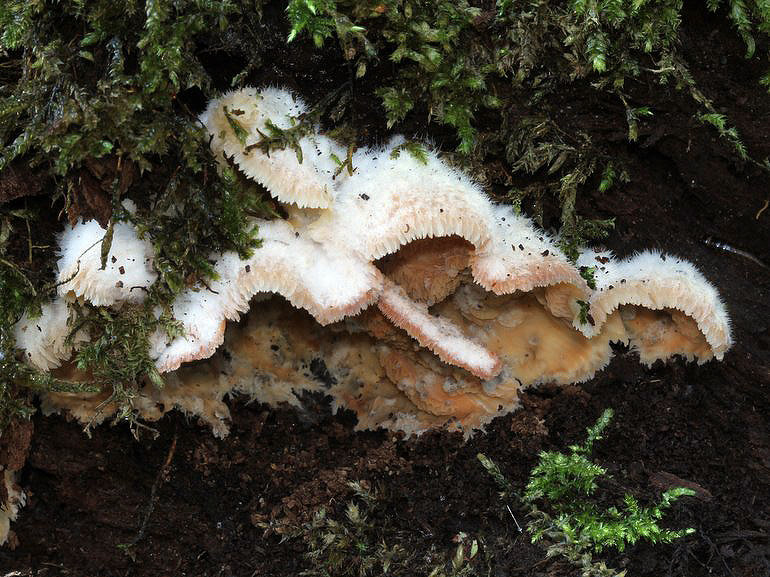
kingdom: Fungi
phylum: Basidiomycota
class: Agaricomycetes
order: Polyporales
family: Meruliaceae
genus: Phlebia
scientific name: Phlebia tremellosa
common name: bævrende åresvamp
